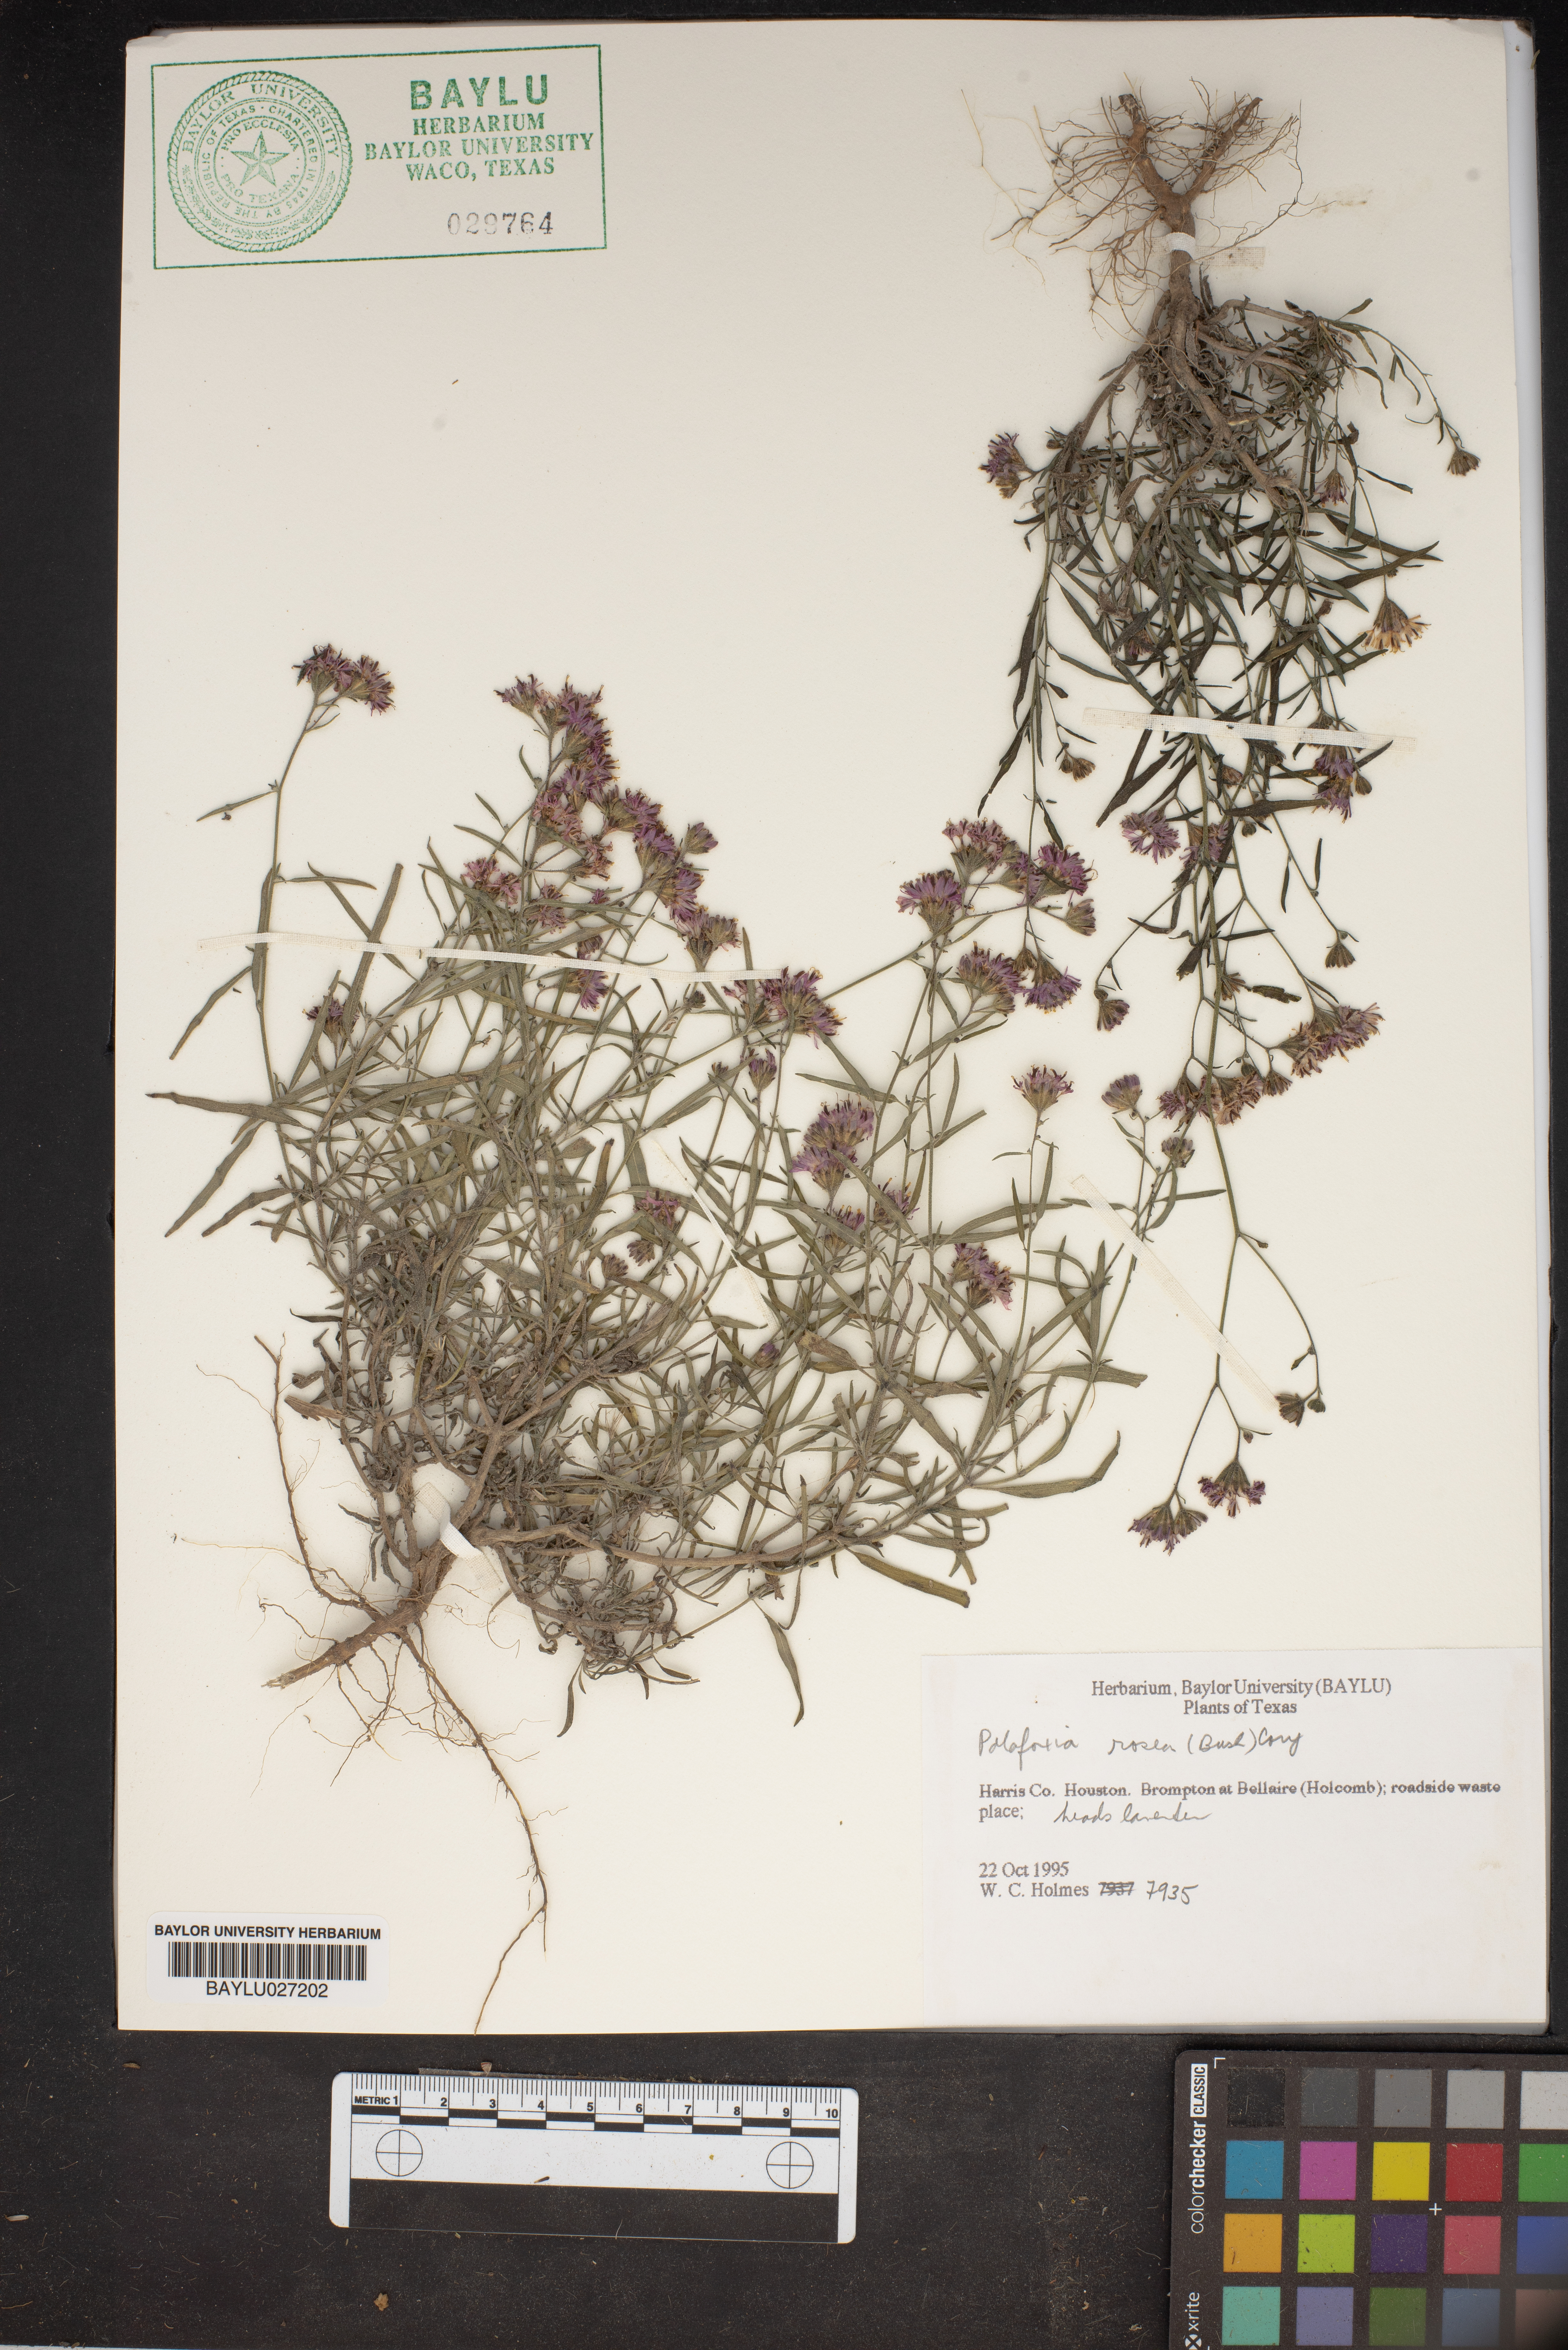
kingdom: Plantae
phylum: Tracheophyta
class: Magnoliopsida
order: Asterales
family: Asteraceae
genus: Palafoxia
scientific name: Palafoxia rosea
